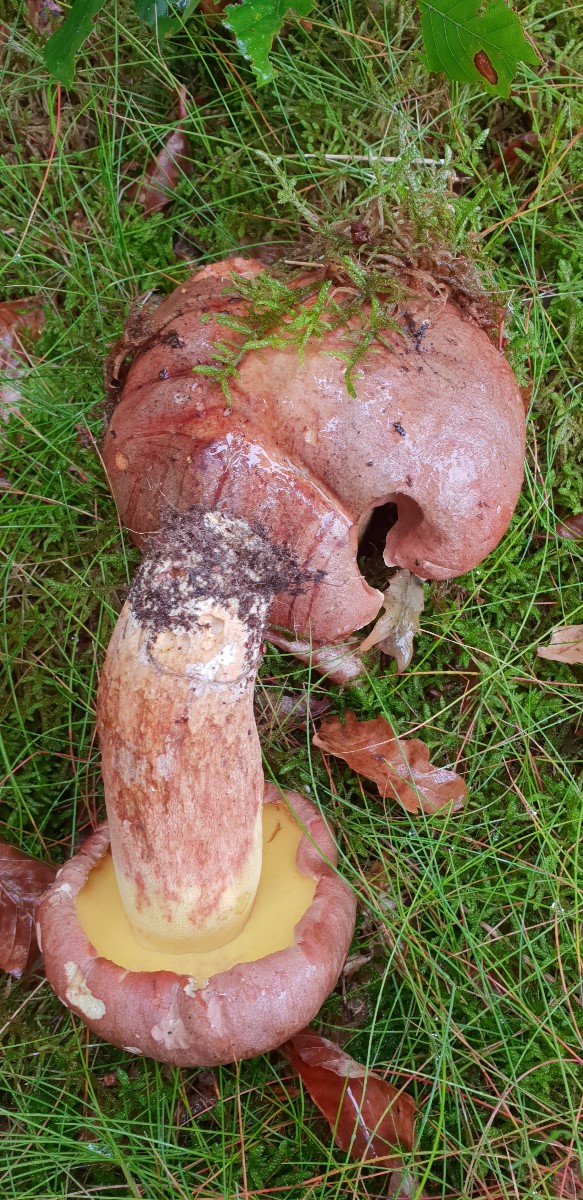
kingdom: Fungi
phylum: Basidiomycota
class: Agaricomycetes
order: Boletales
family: Boletaceae
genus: Butyriboletus
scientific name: Butyriboletus appendiculatus
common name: tenstokket rørhat
